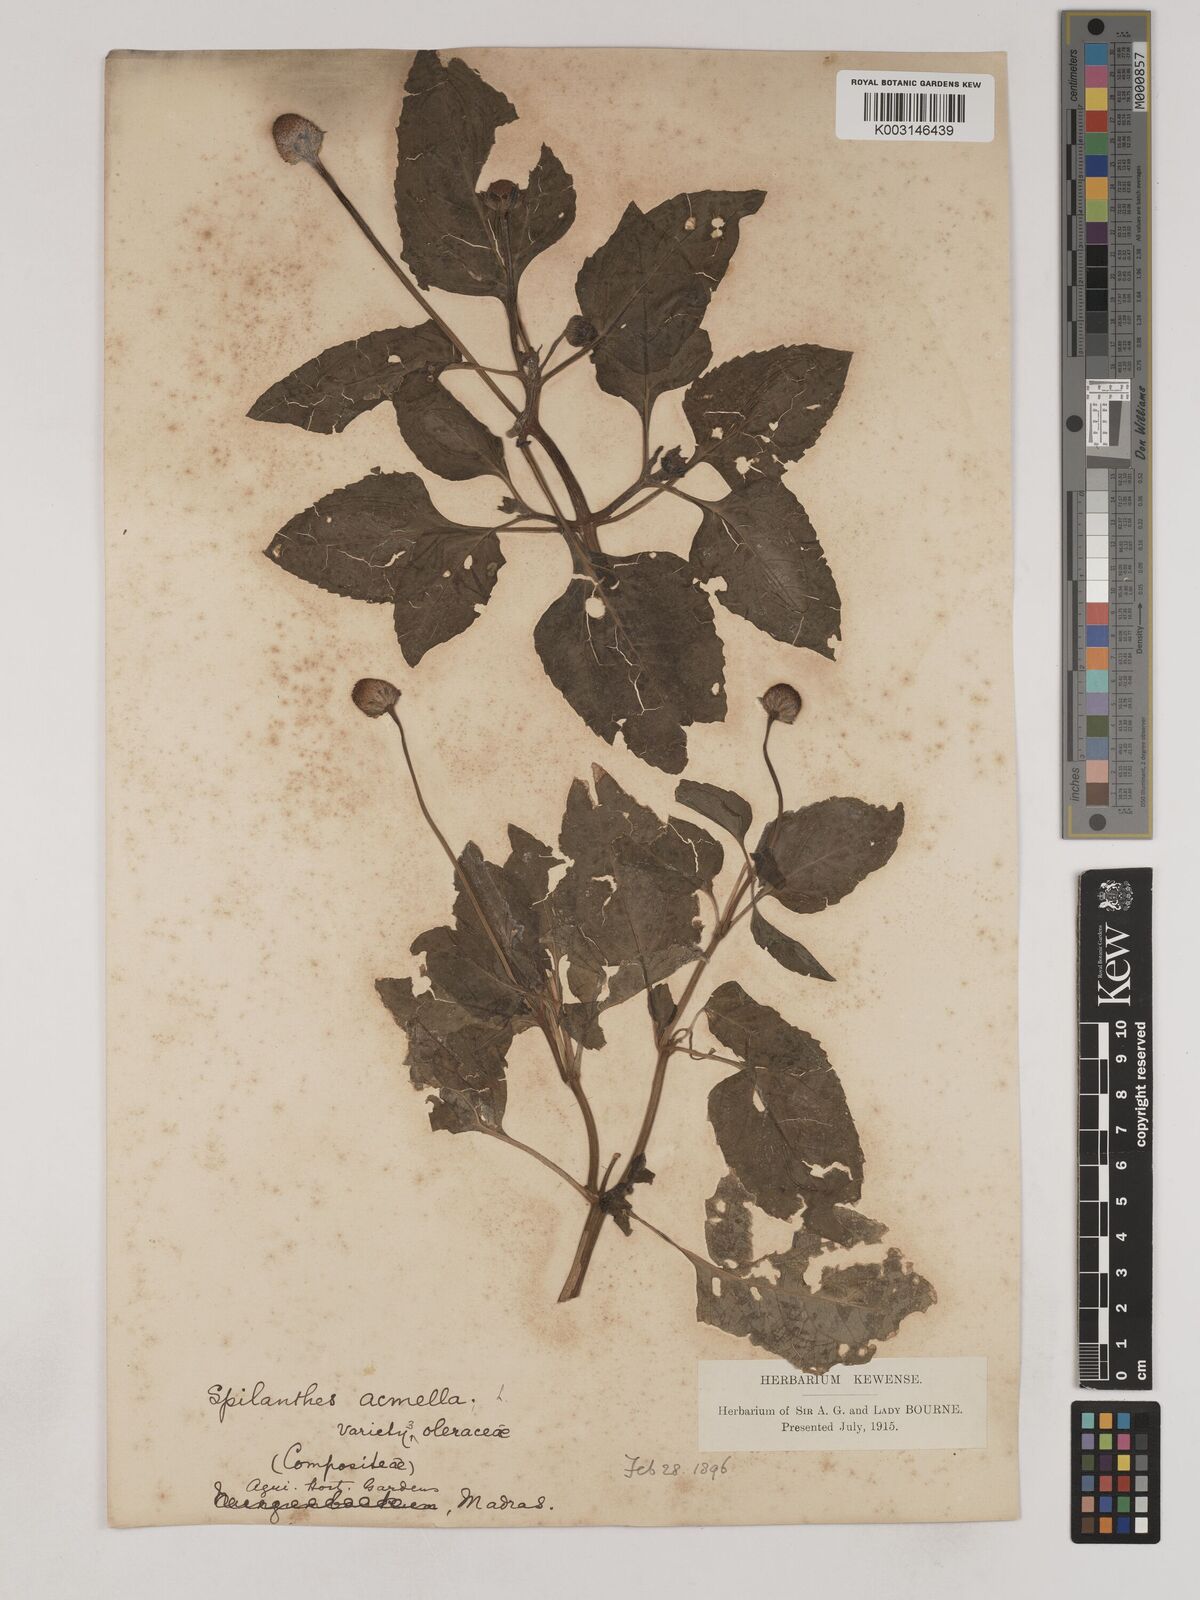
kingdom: Plantae
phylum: Tracheophyta
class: Magnoliopsida
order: Asterales
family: Asteraceae
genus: Acmella
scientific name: Acmella oleracea
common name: Brazilian cress
